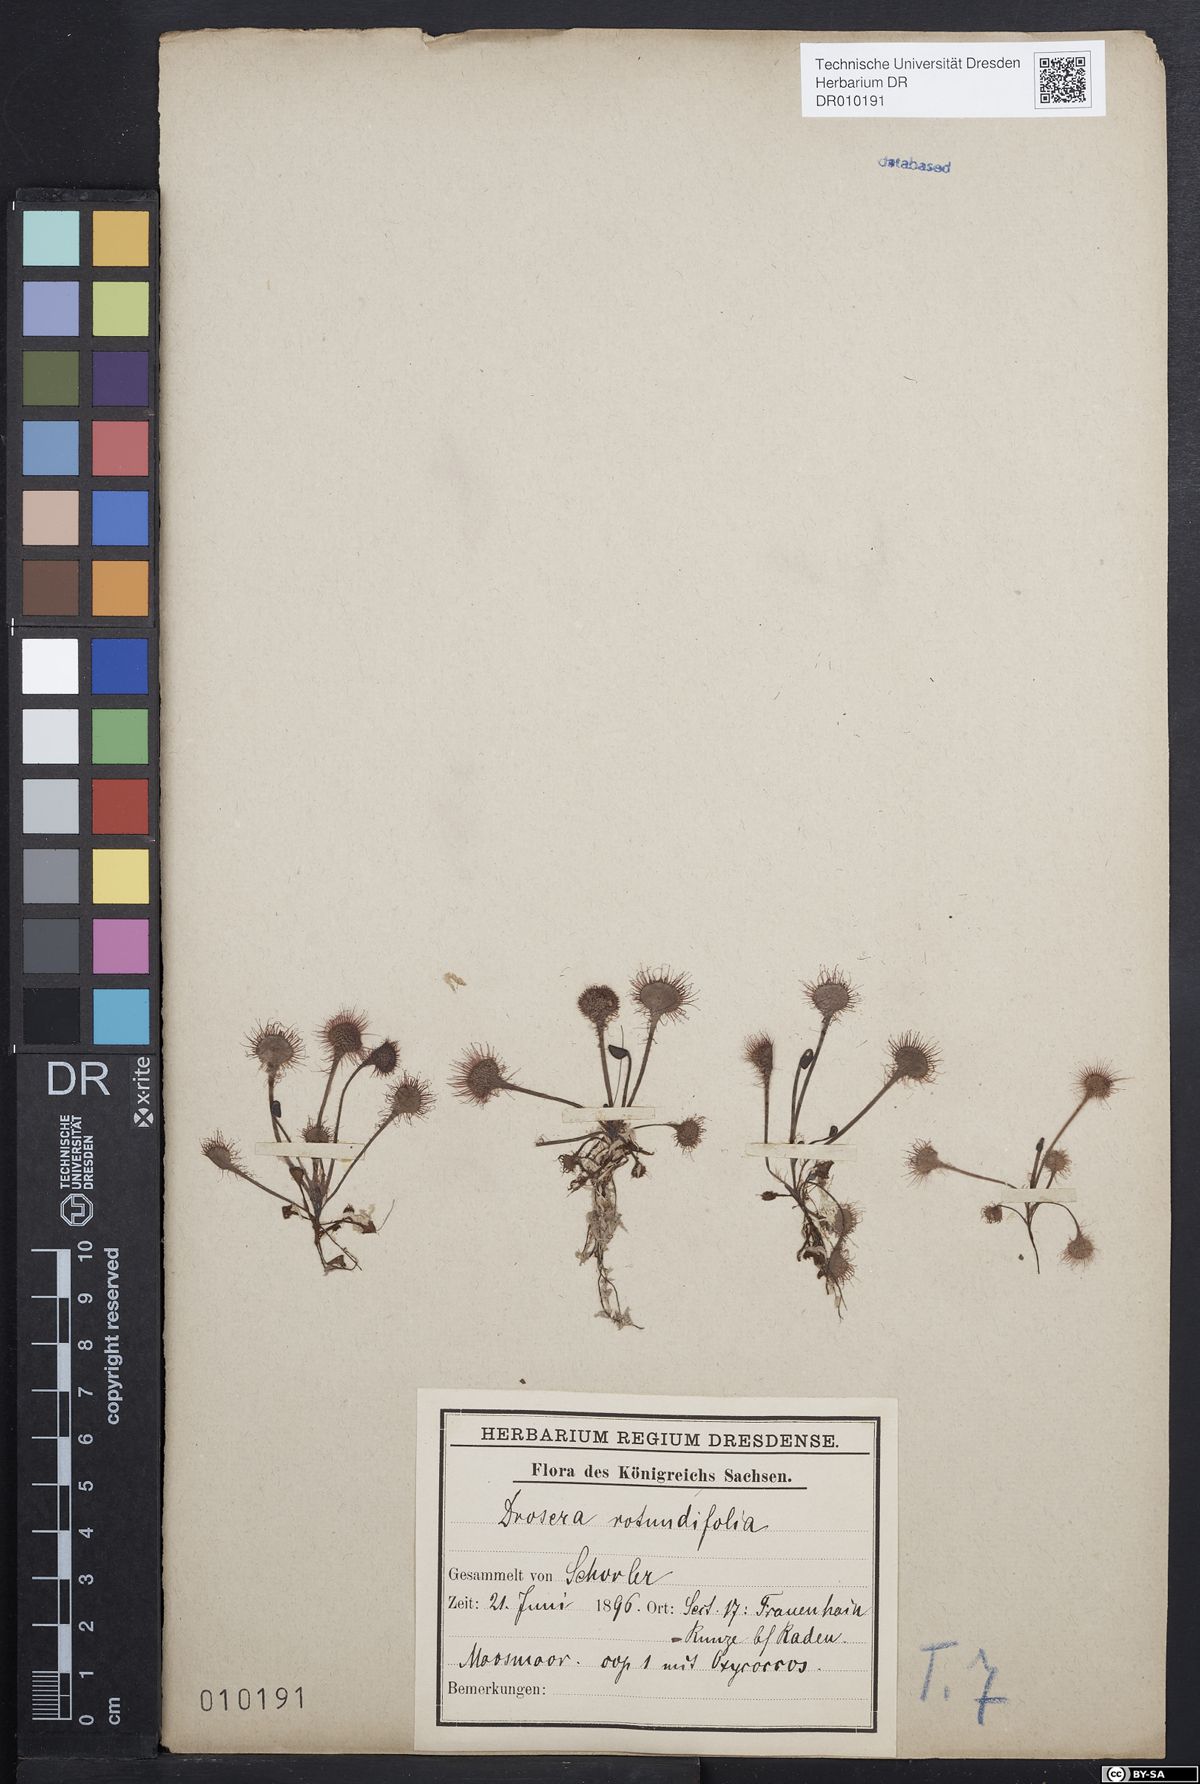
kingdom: Plantae
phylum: Tracheophyta
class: Magnoliopsida
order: Caryophyllales
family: Droseraceae
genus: Drosera
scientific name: Drosera rotundifolia
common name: Round-leaved sundew
